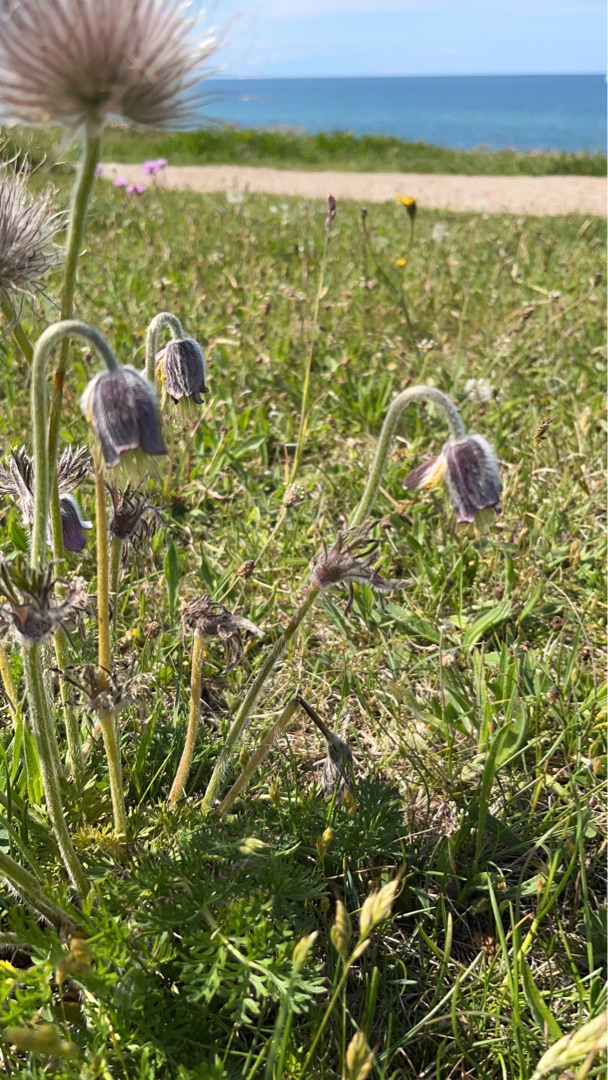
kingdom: Plantae
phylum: Tracheophyta
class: Magnoliopsida
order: Ranunculales
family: Ranunculaceae
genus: Pulsatilla
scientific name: Pulsatilla pratensis
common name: Nikkende kobjælde
